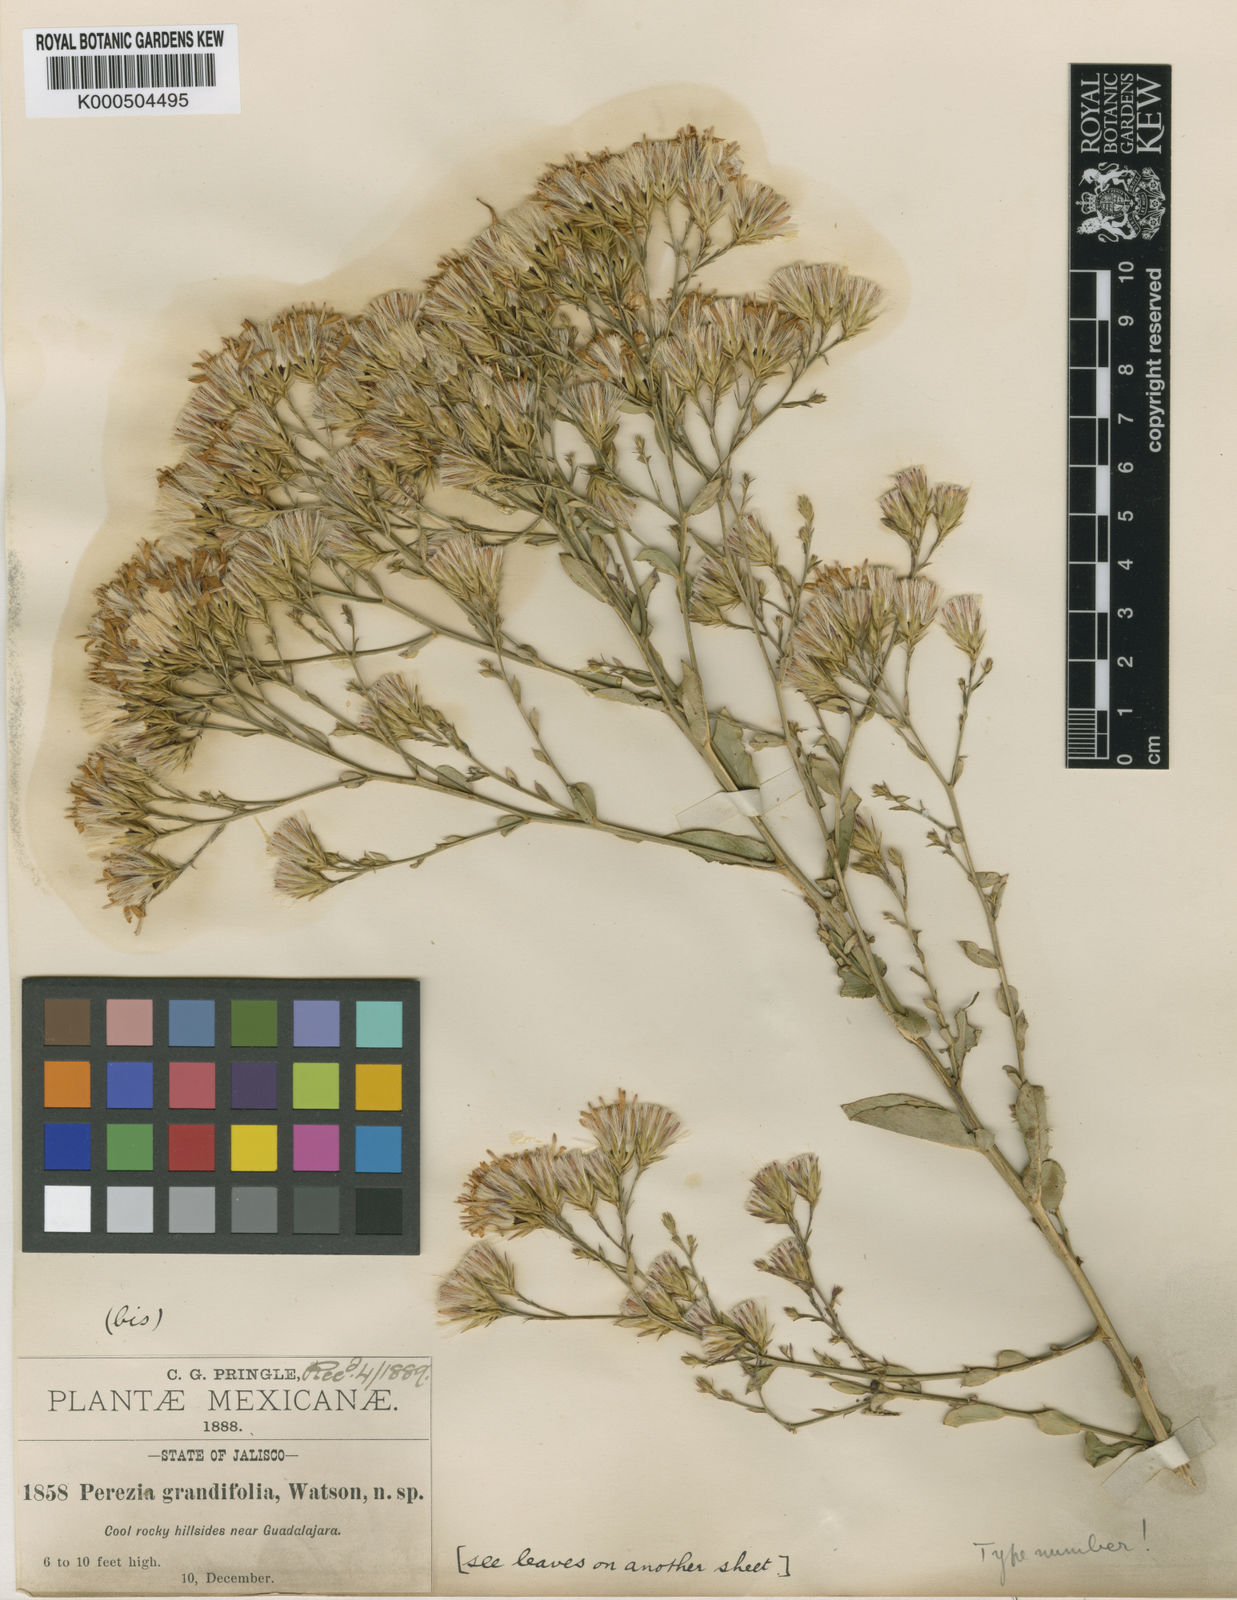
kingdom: Plantae
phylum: Tracheophyta
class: Magnoliopsida
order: Asterales
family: Asteraceae
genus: Acourtia
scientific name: Acourtia grandifolia
